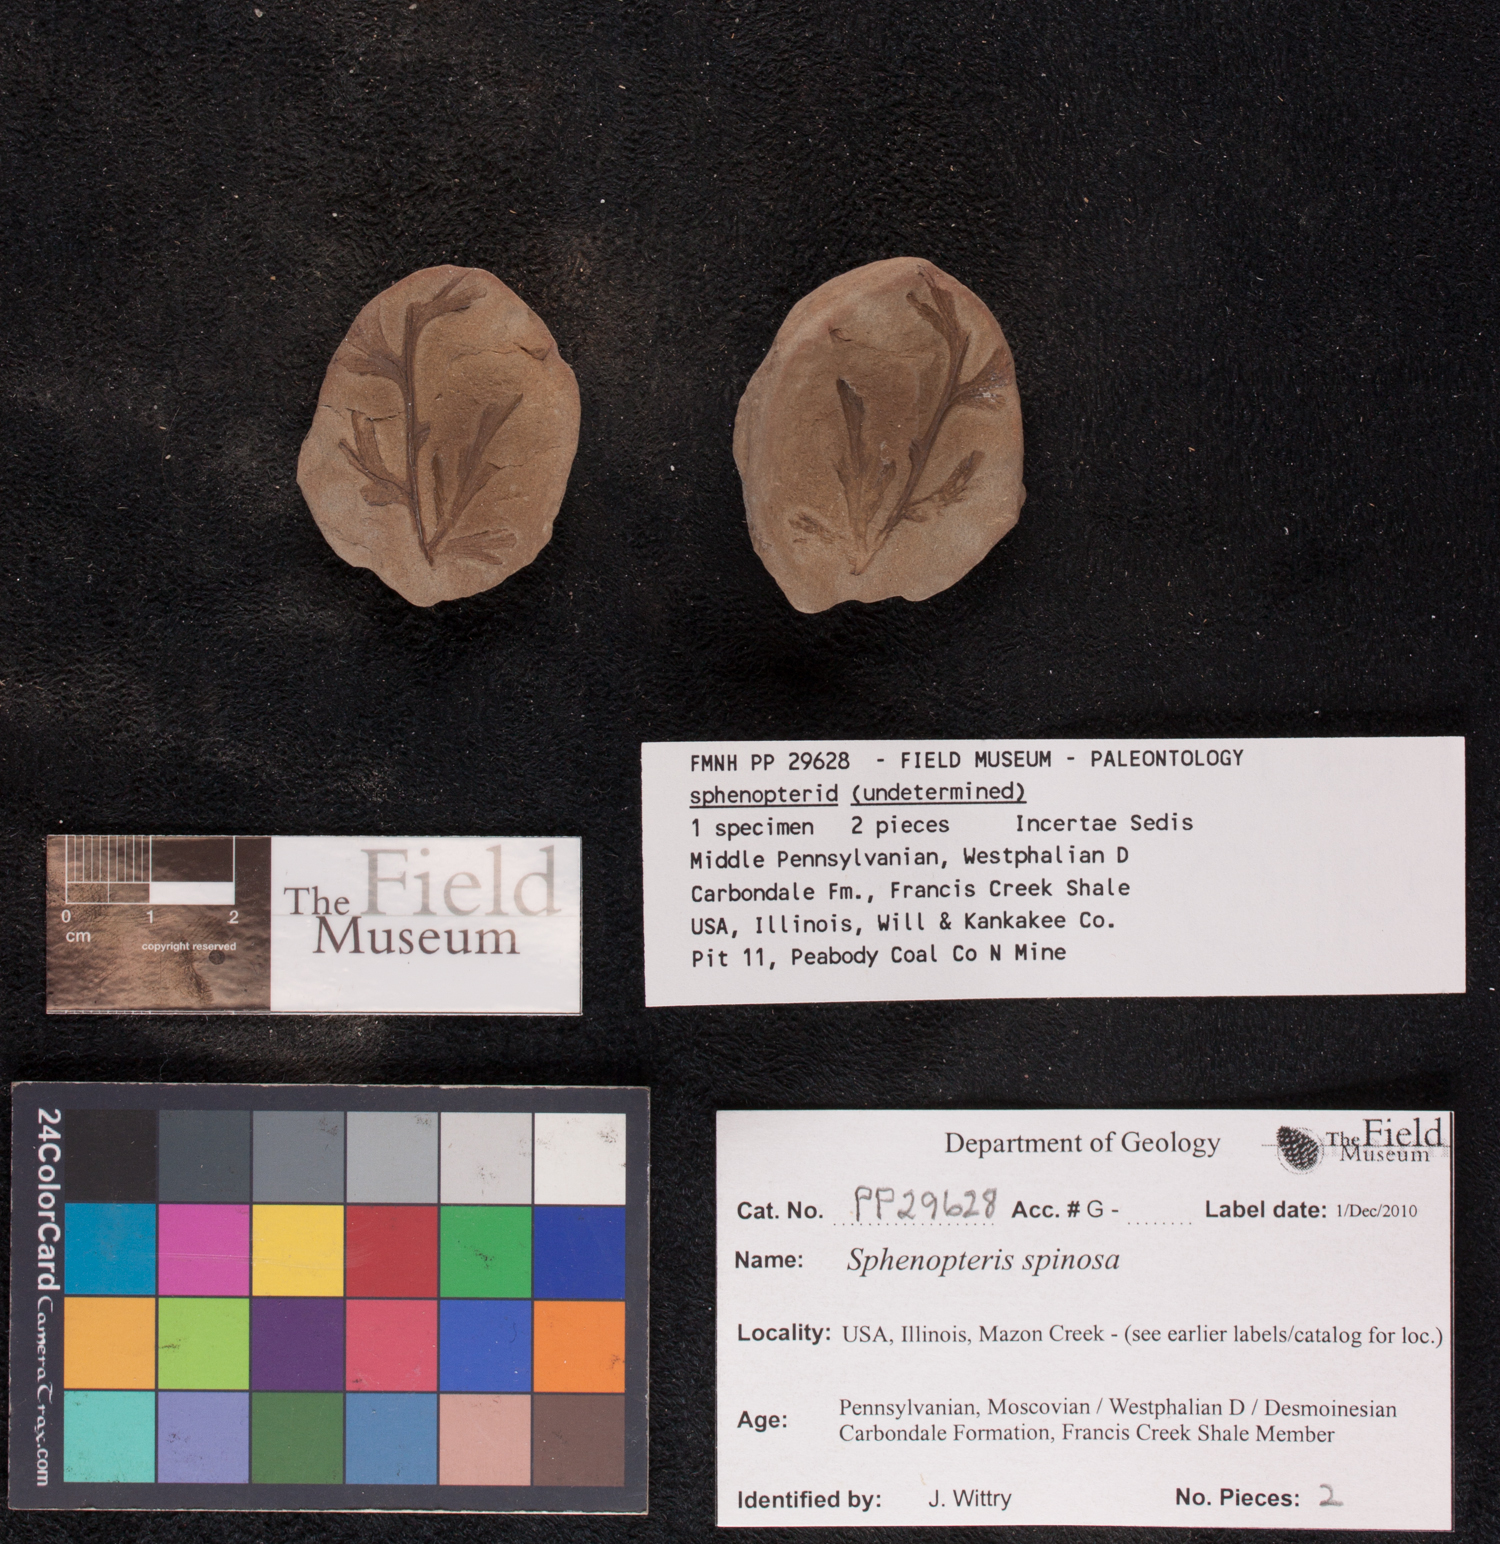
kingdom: Plantae
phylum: Tracheophyta
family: Lyginopteridaceae
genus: Sphenopteris
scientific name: Sphenopteris
